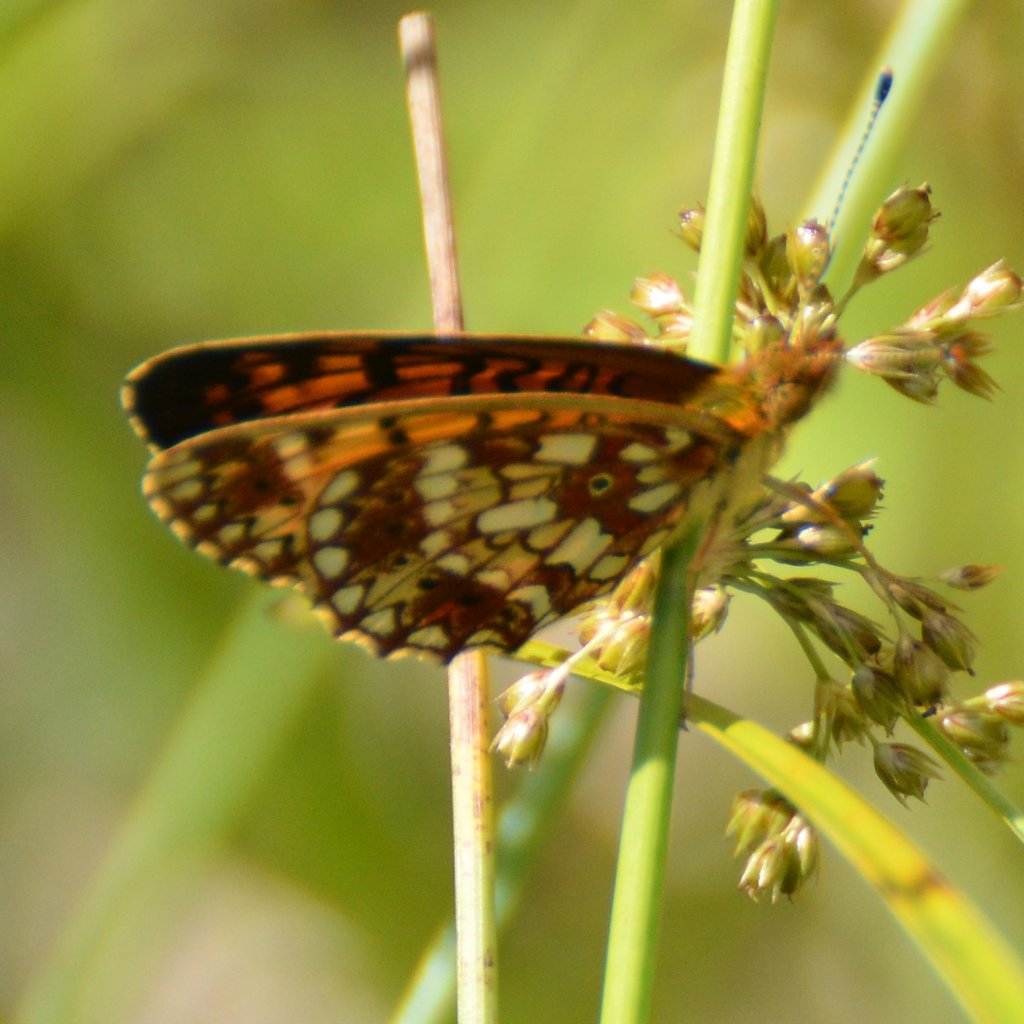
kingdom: Animalia
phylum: Arthropoda
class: Insecta
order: Lepidoptera
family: Nymphalidae
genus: Boloria
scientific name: Boloria selene
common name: Silver-bordered Fritillary
